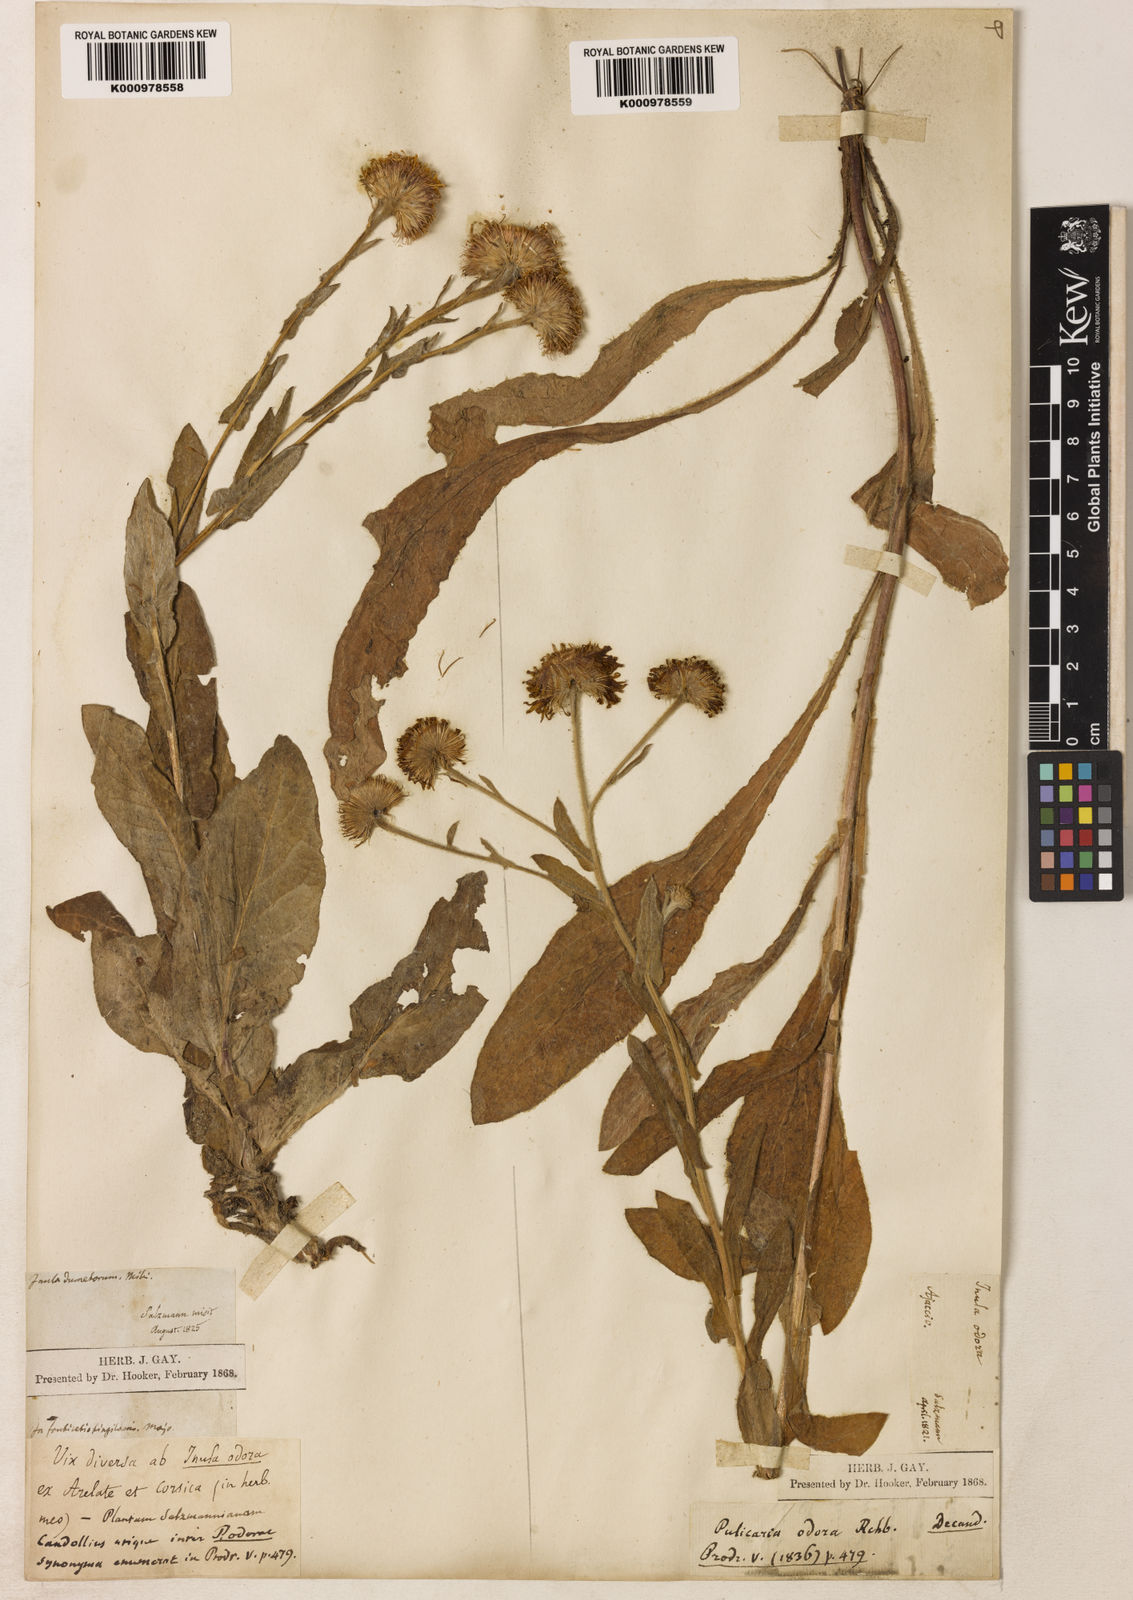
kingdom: Plantae
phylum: Tracheophyta
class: Magnoliopsida
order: Asterales
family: Asteraceae
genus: Pulicaria
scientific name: Pulicaria odora
